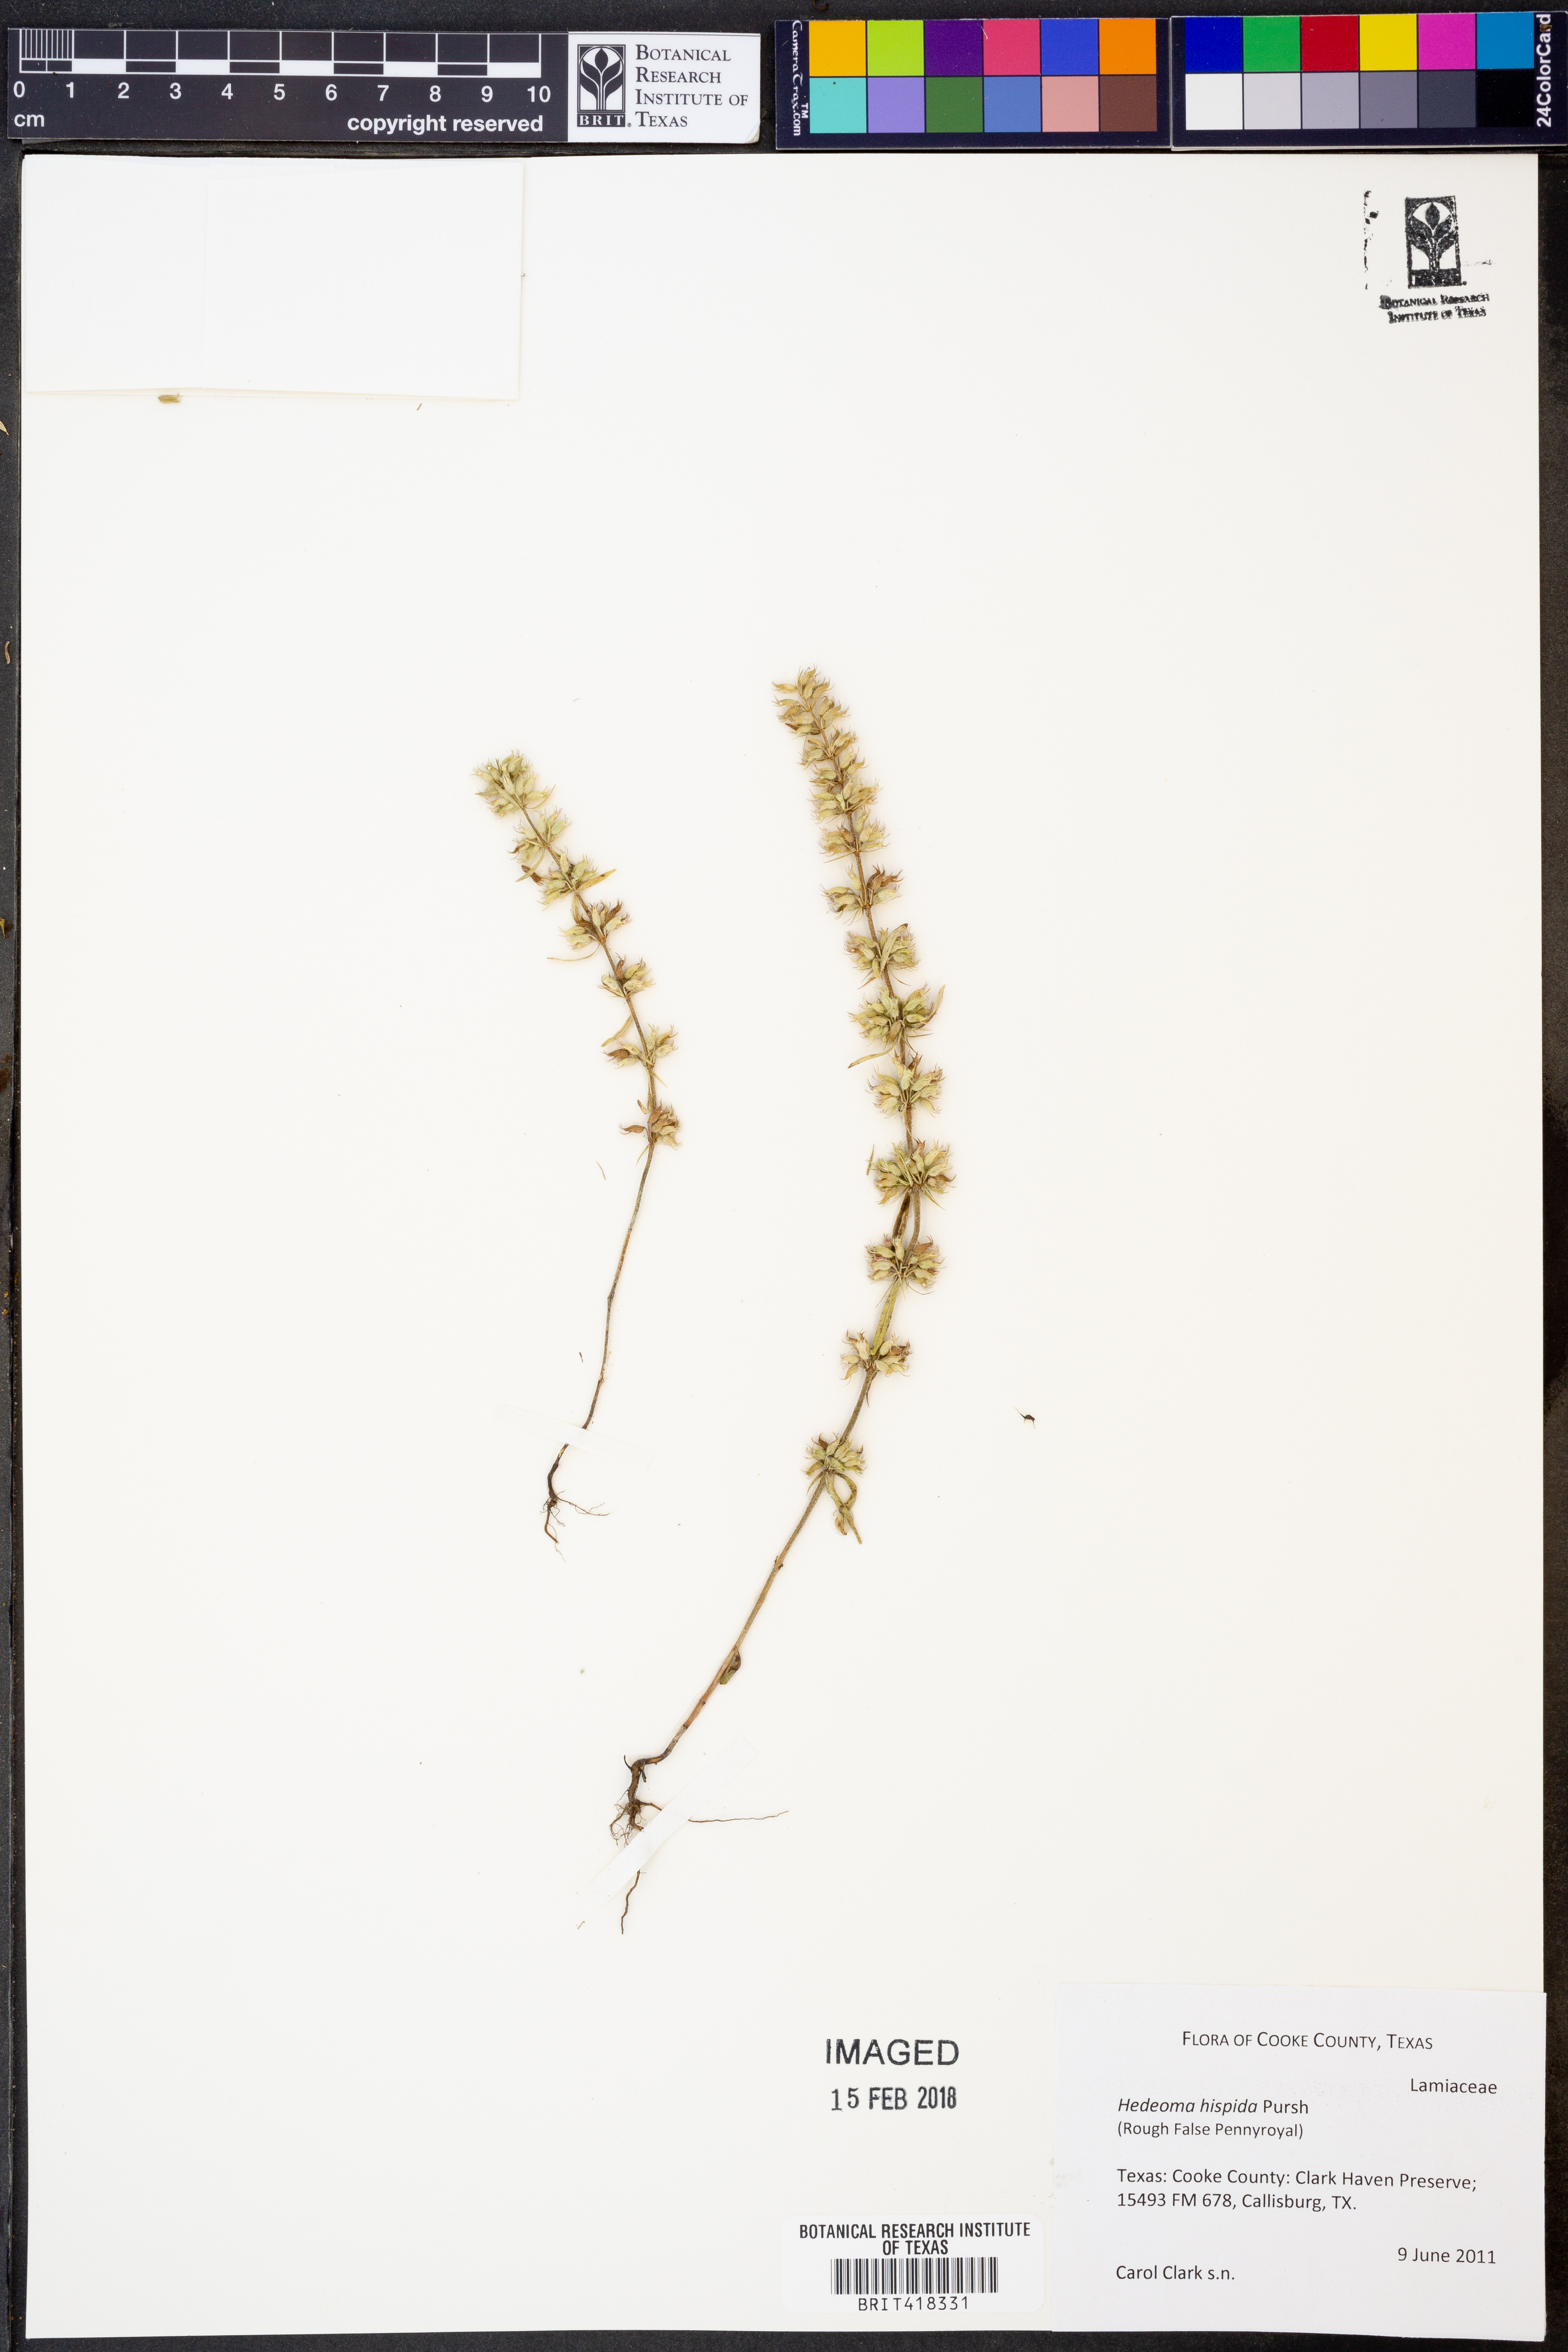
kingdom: Plantae
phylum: Tracheophyta
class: Magnoliopsida
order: Lamiales
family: Lamiaceae
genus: Hedeoma
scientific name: Hedeoma hispida
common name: Mock pennyroyal
